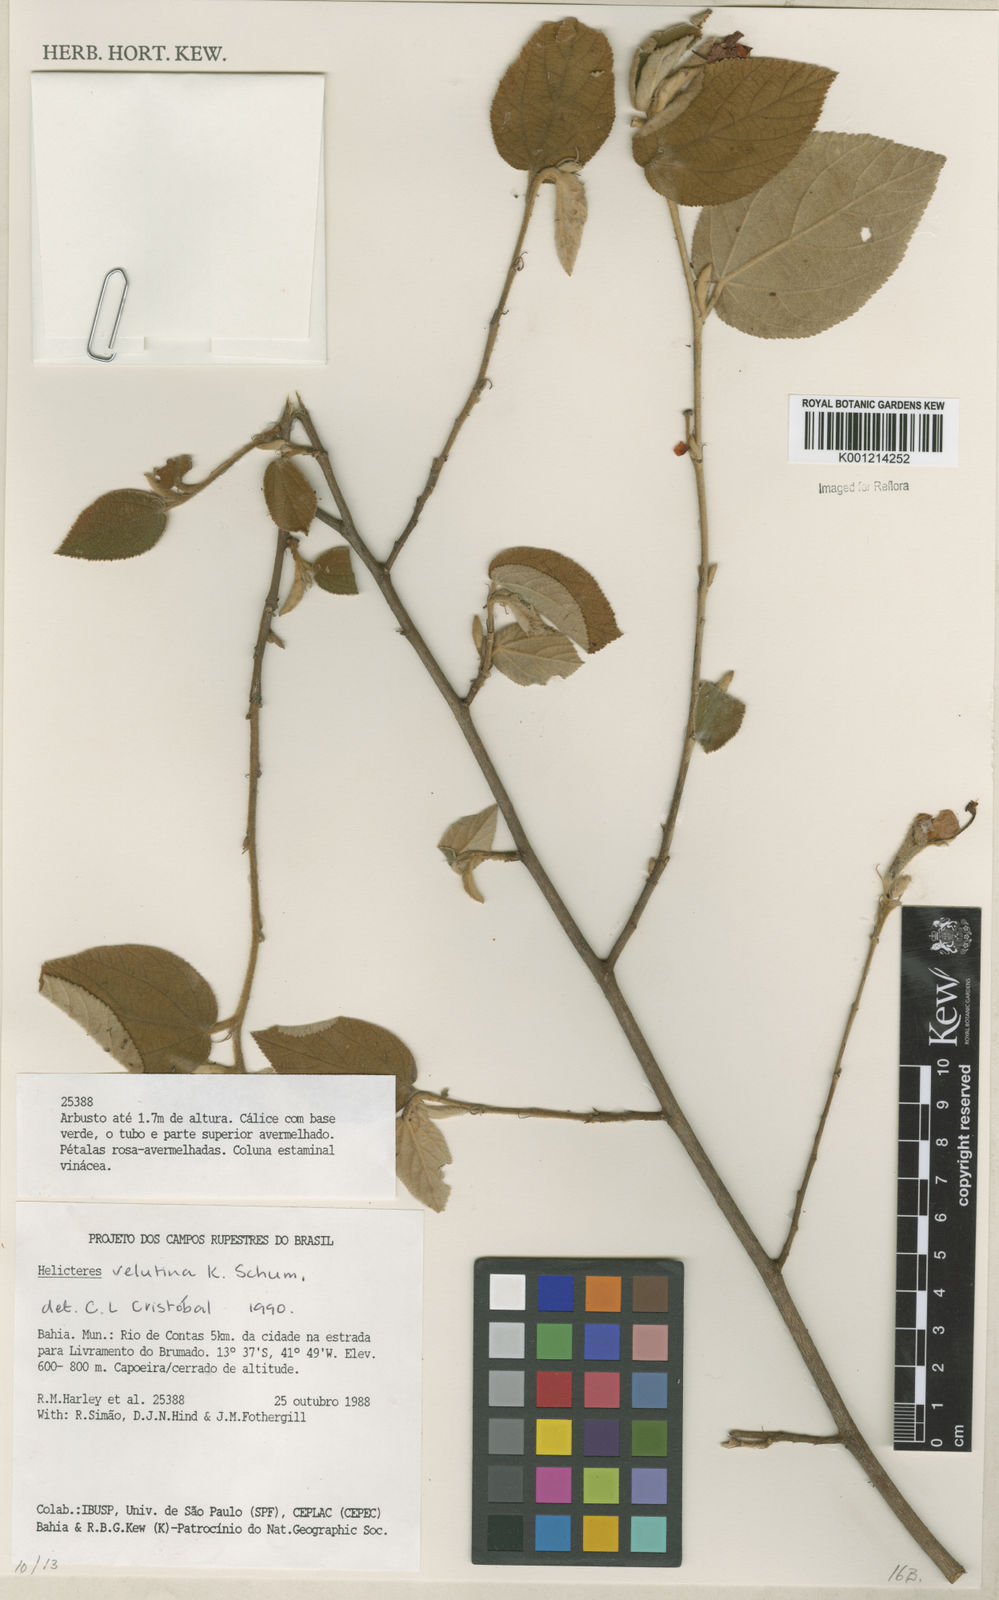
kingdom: Plantae
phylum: Tracheophyta
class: Magnoliopsida
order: Malvales
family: Malvaceae
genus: Helicteres
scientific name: Helicteres velutina
